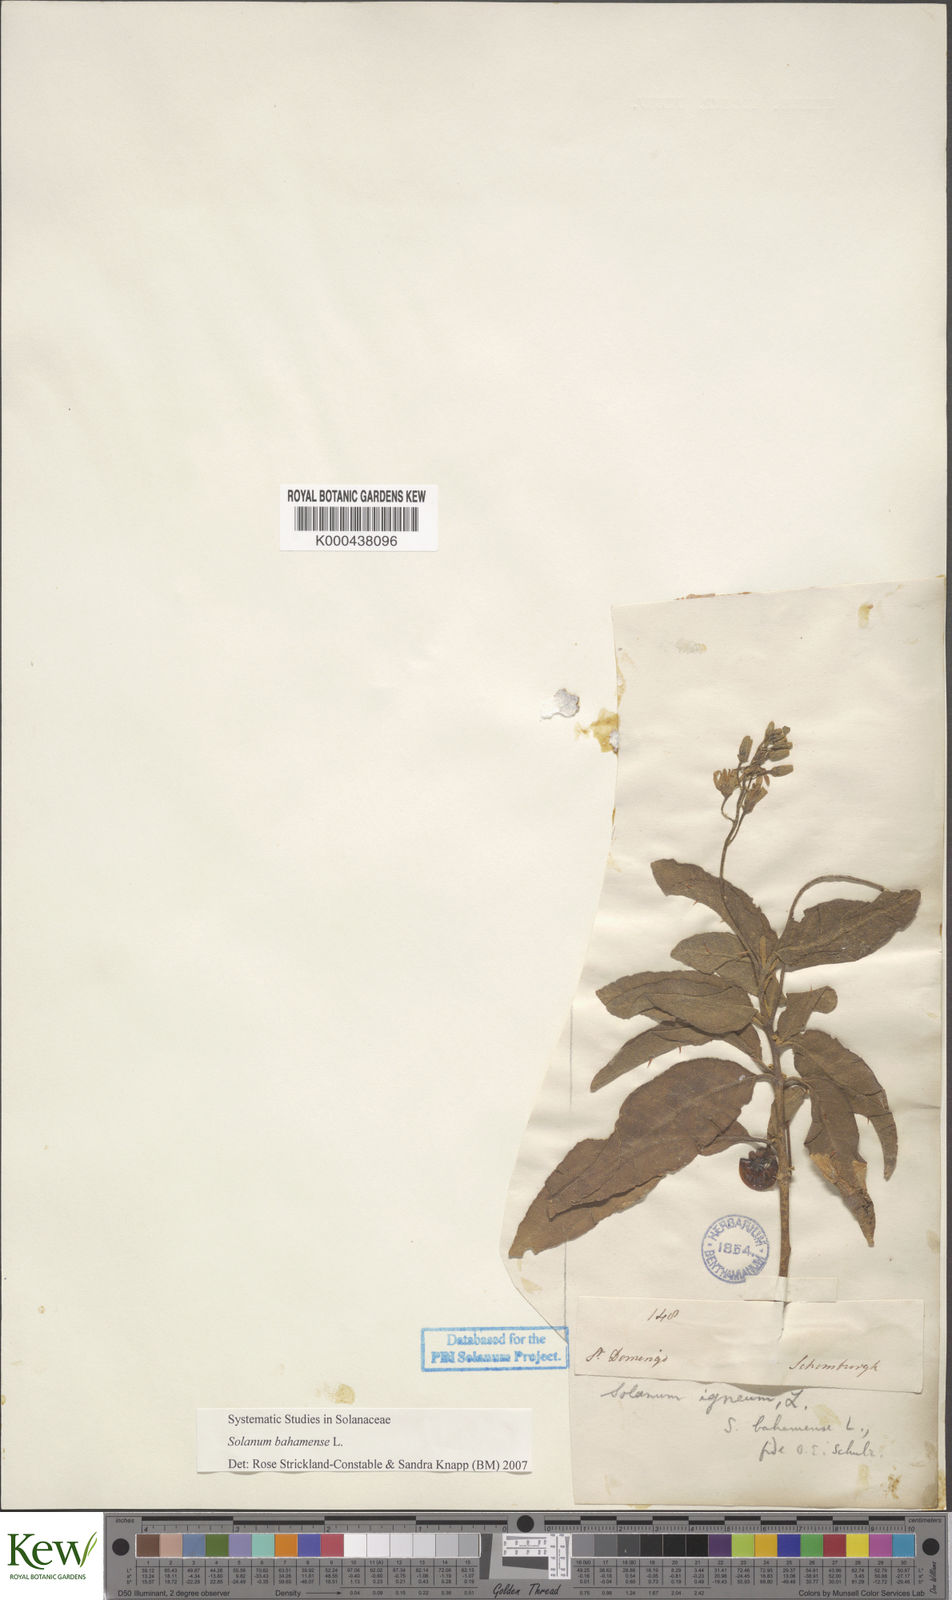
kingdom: Plantae
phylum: Tracheophyta
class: Magnoliopsida
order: Solanales
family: Solanaceae
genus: Solanum
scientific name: Solanum bahamense
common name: Canker-berry
